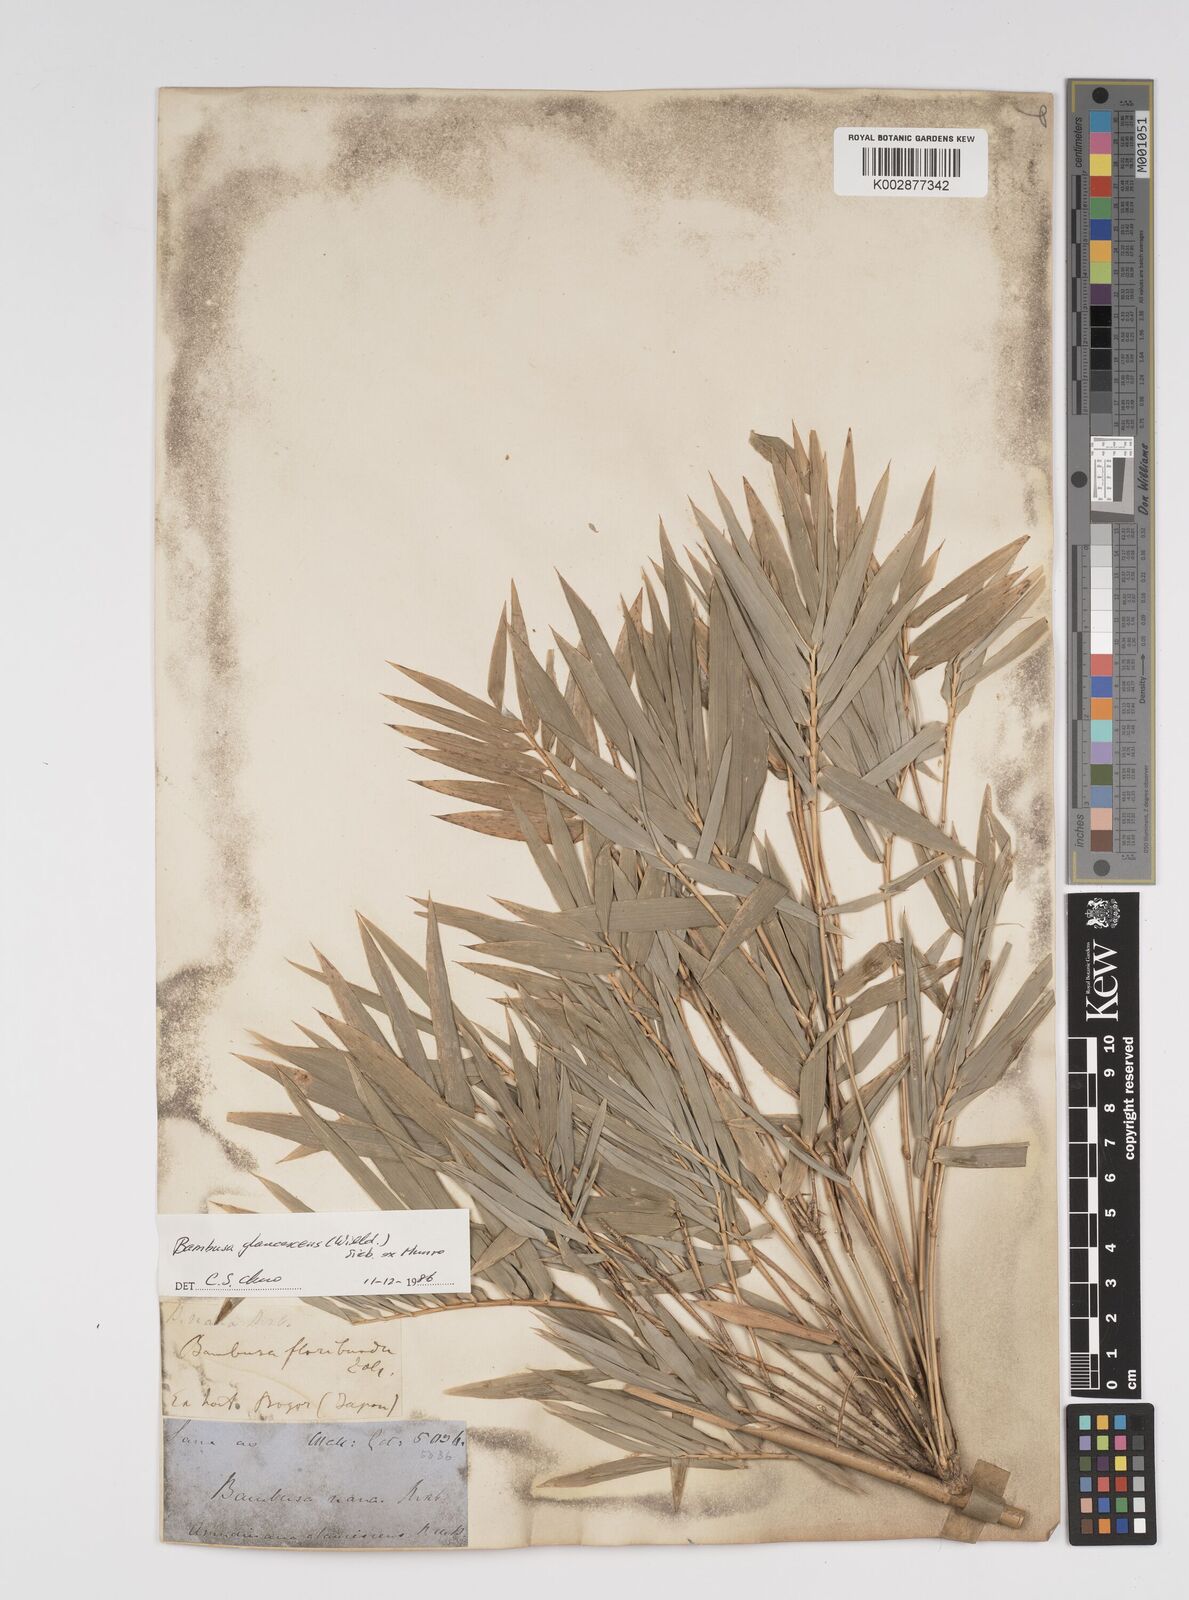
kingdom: Plantae
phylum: Tracheophyta
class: Liliopsida
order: Poales
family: Poaceae
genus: Bambusa
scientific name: Bambusa multiplex
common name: Hedge bamboo
